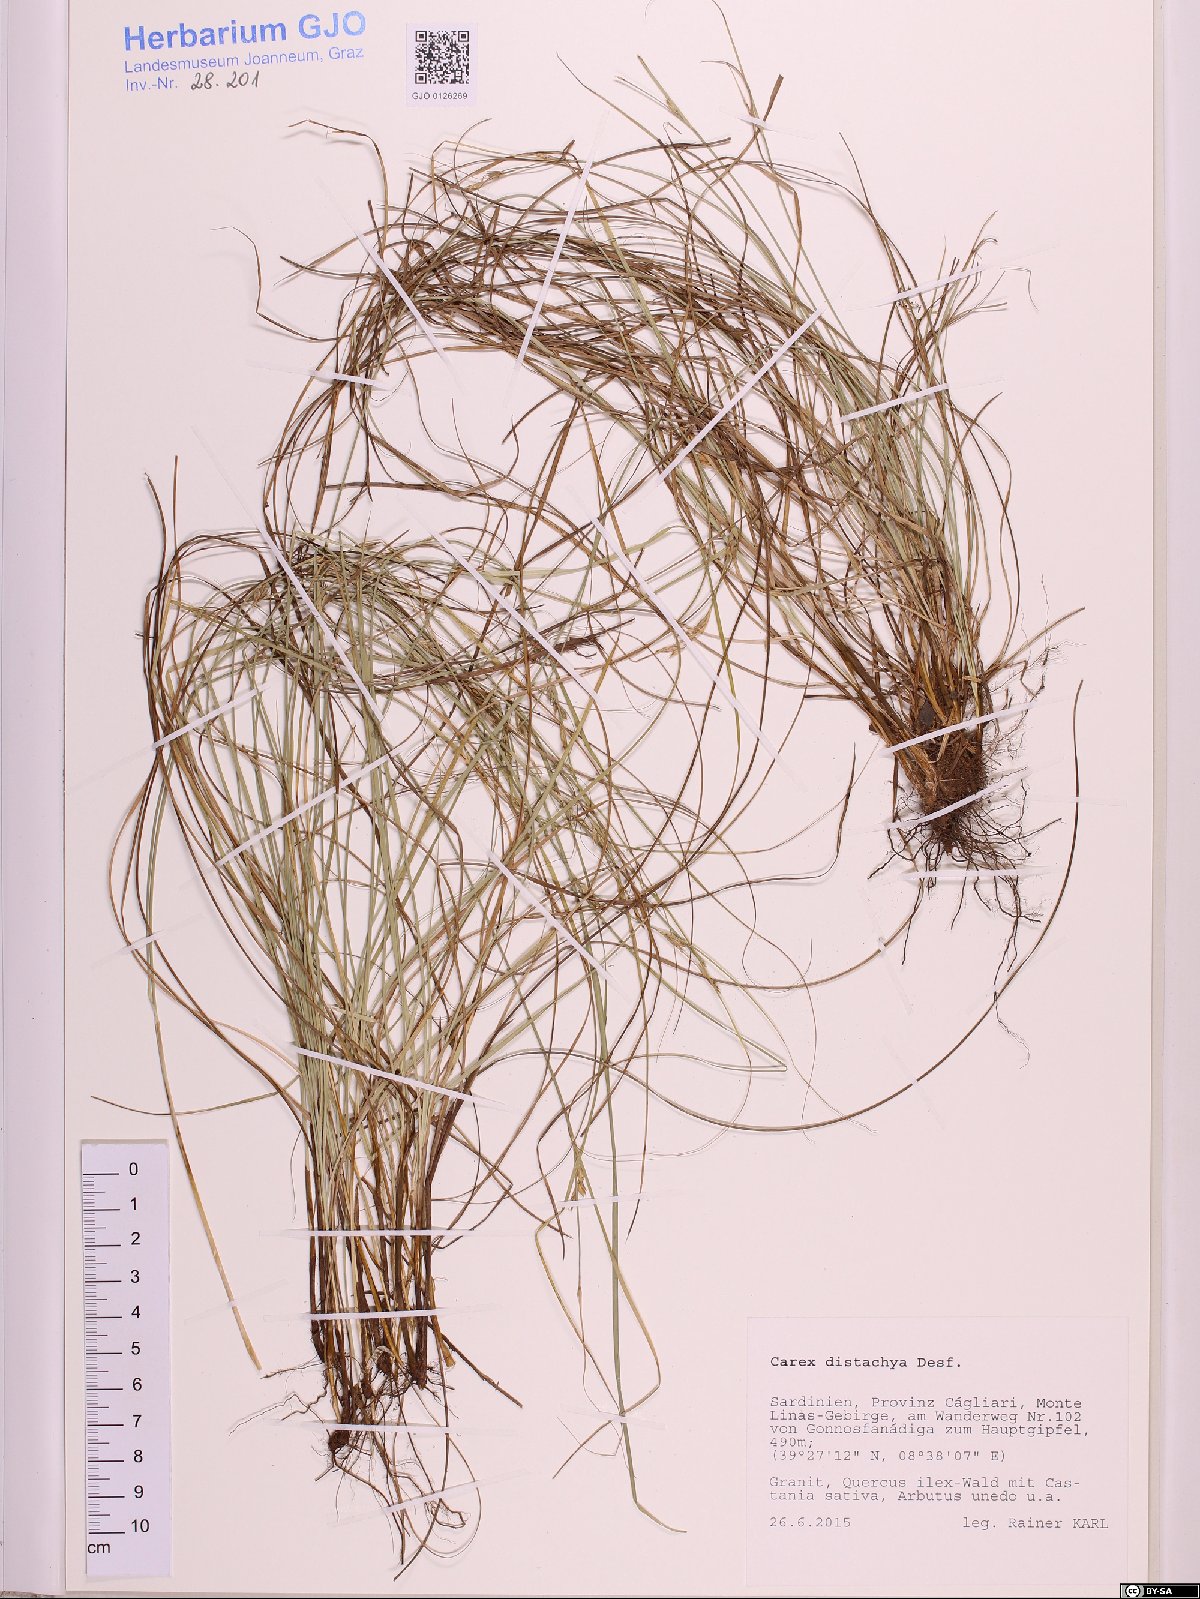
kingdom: Plantae
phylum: Tracheophyta
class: Liliopsida
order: Poales
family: Cyperaceae
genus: Carex
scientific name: Carex distachya
